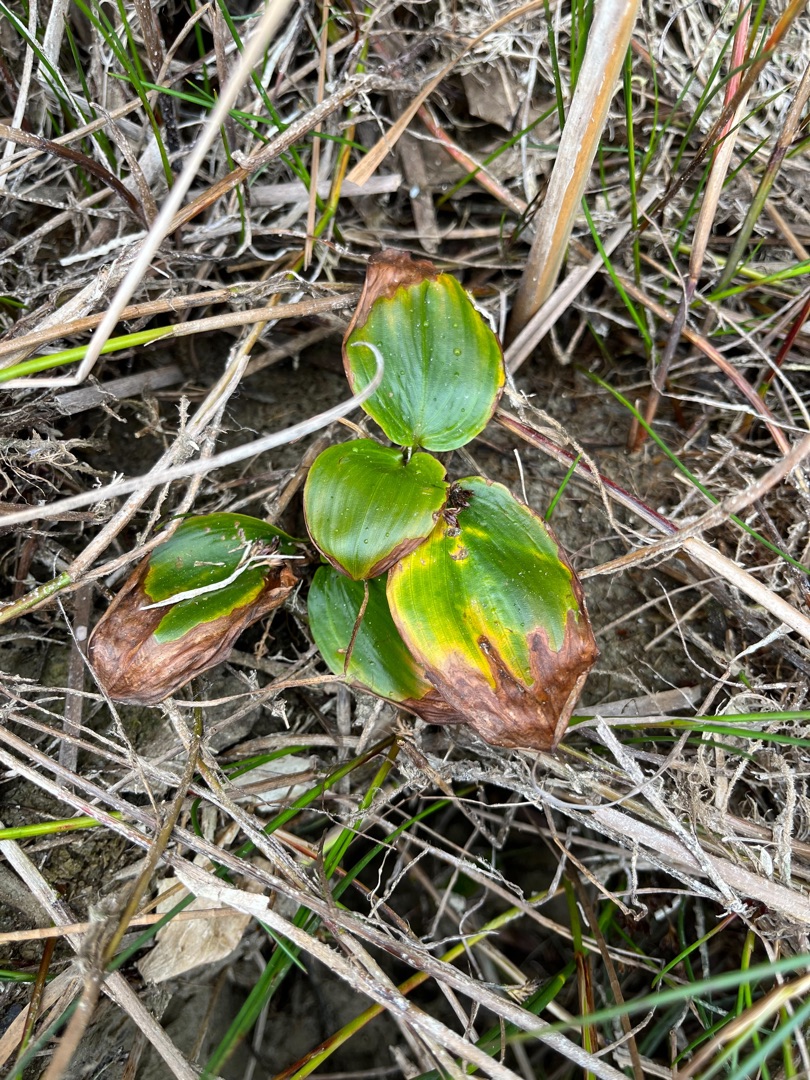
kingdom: Plantae
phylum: Tracheophyta
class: Liliopsida
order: Alismatales
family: Potamogetonaceae
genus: Potamogeton
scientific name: Potamogeton natans
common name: Svømmende vandaks
